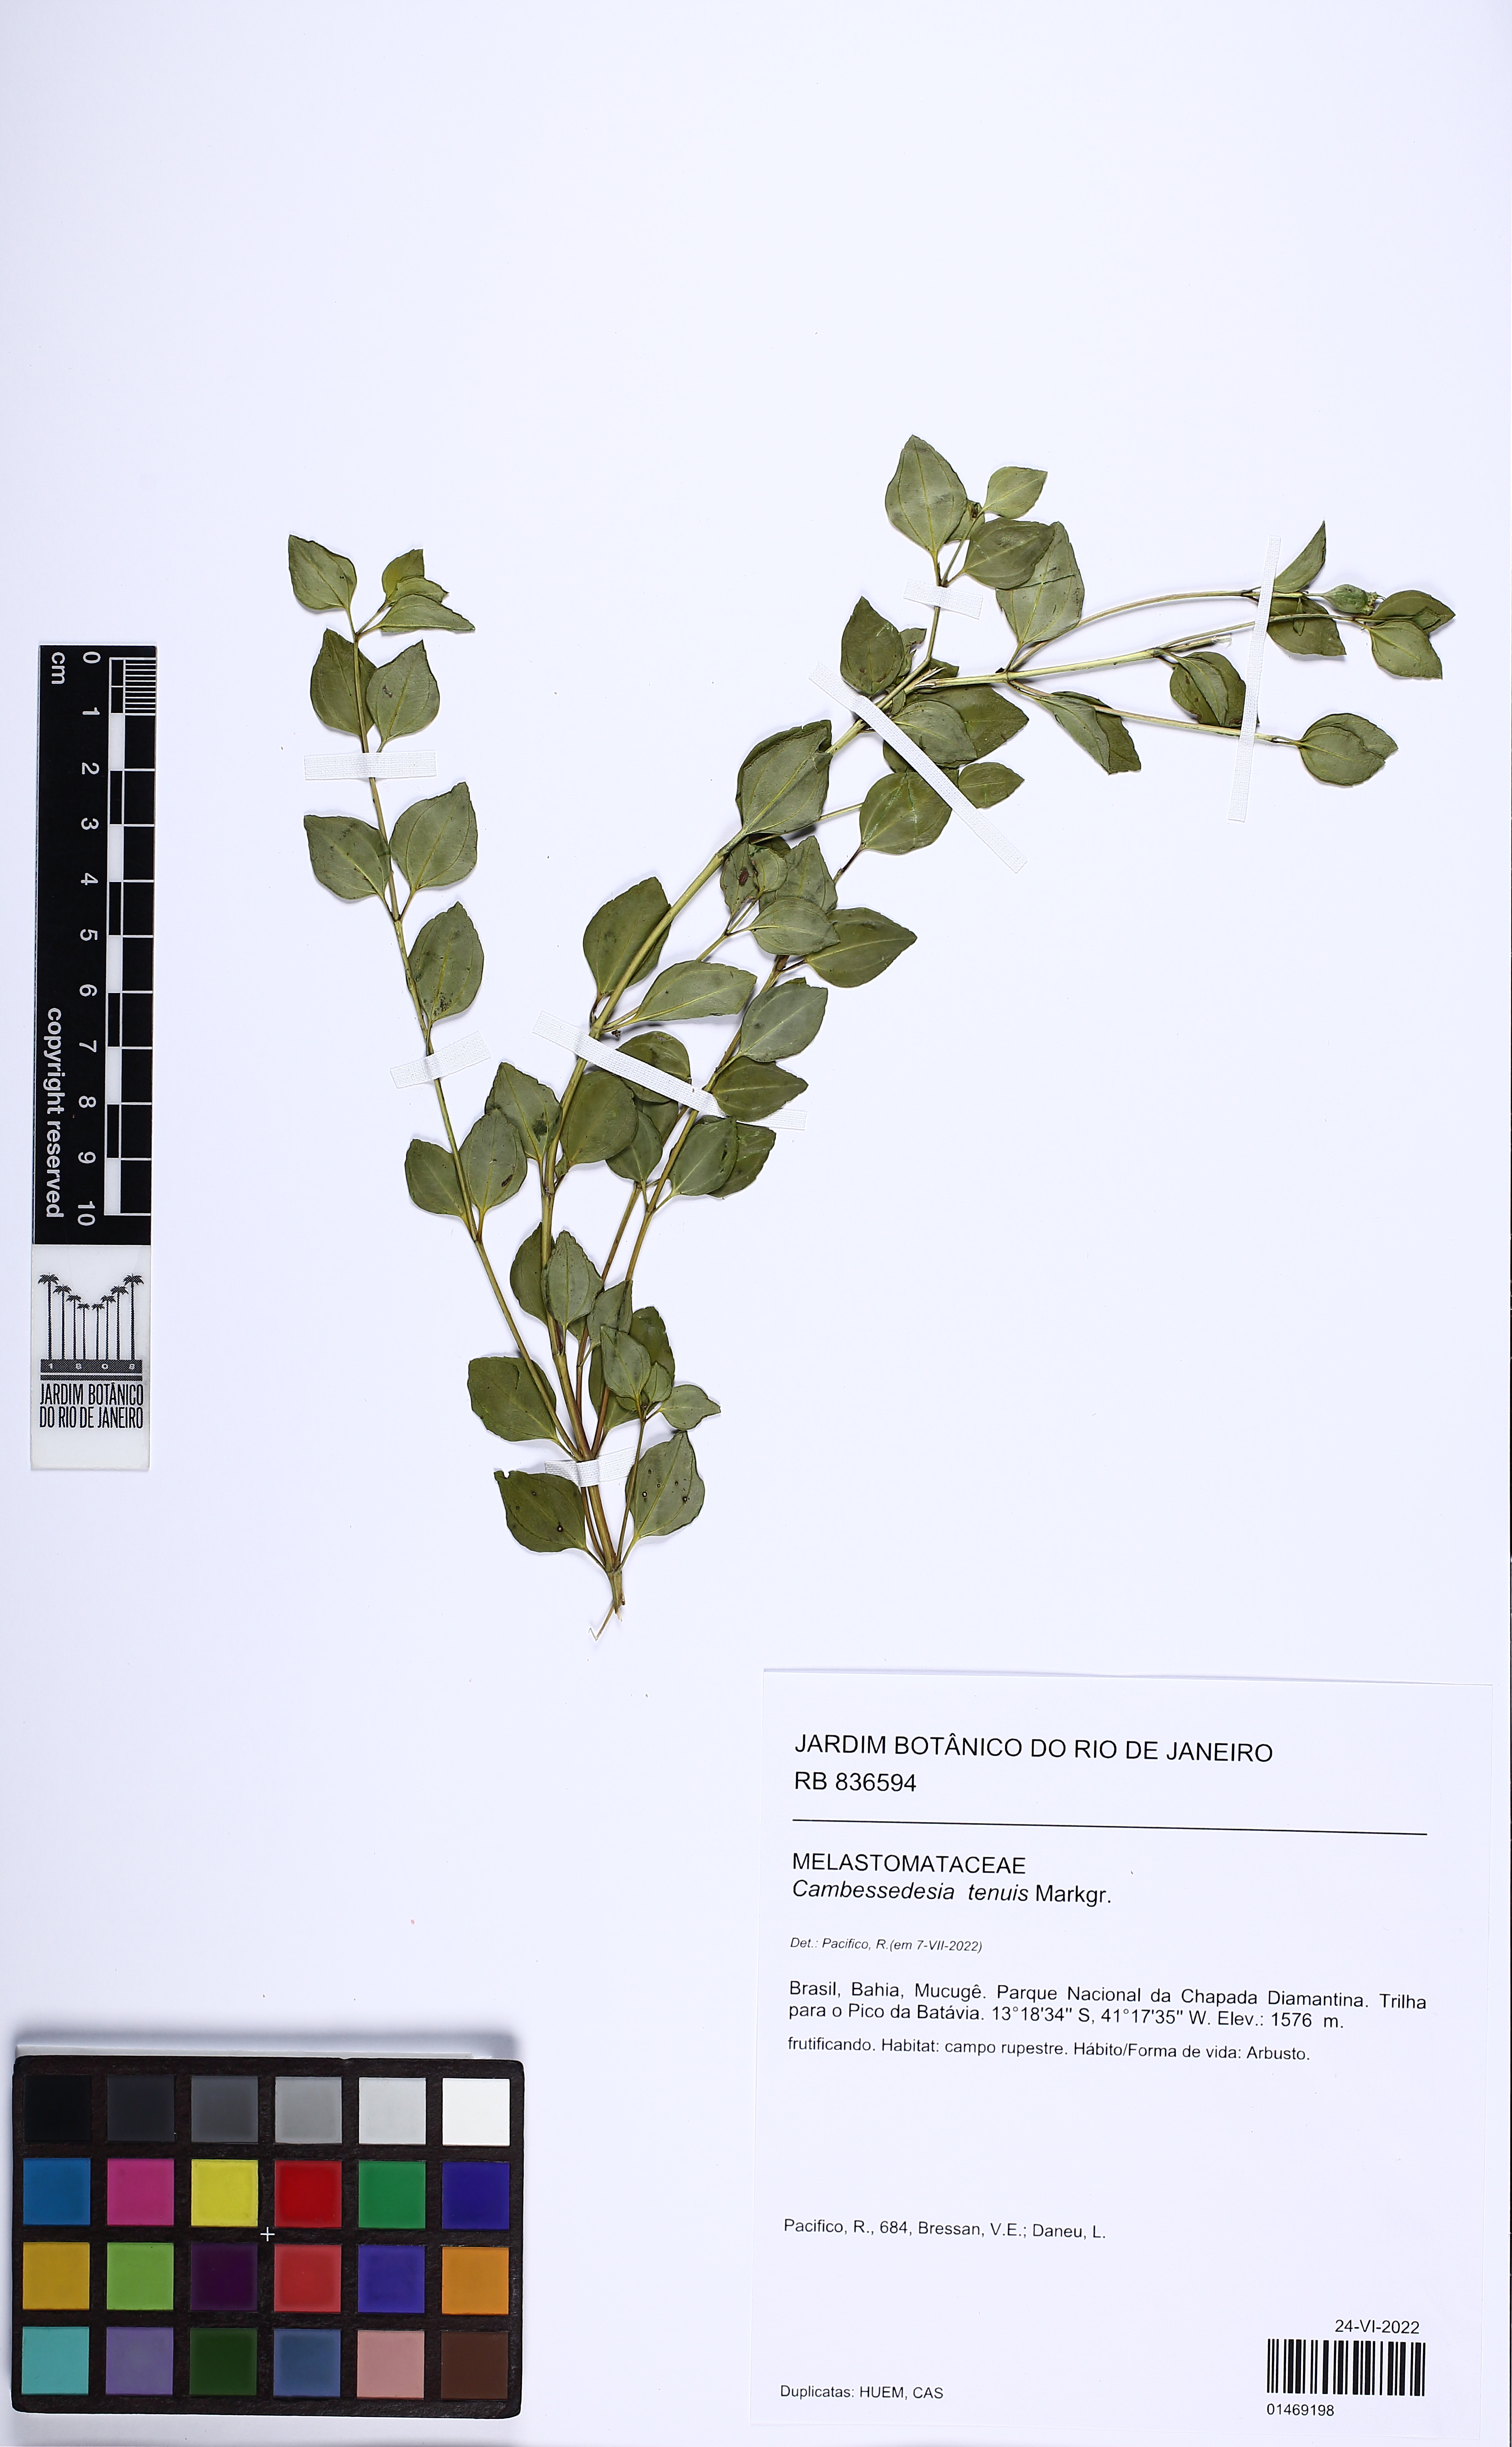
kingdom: Plantae
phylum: Tracheophyta
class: Magnoliopsida
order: Myrtales
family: Melastomataceae
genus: Cambessedesia
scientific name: Cambessedesia tenuis
